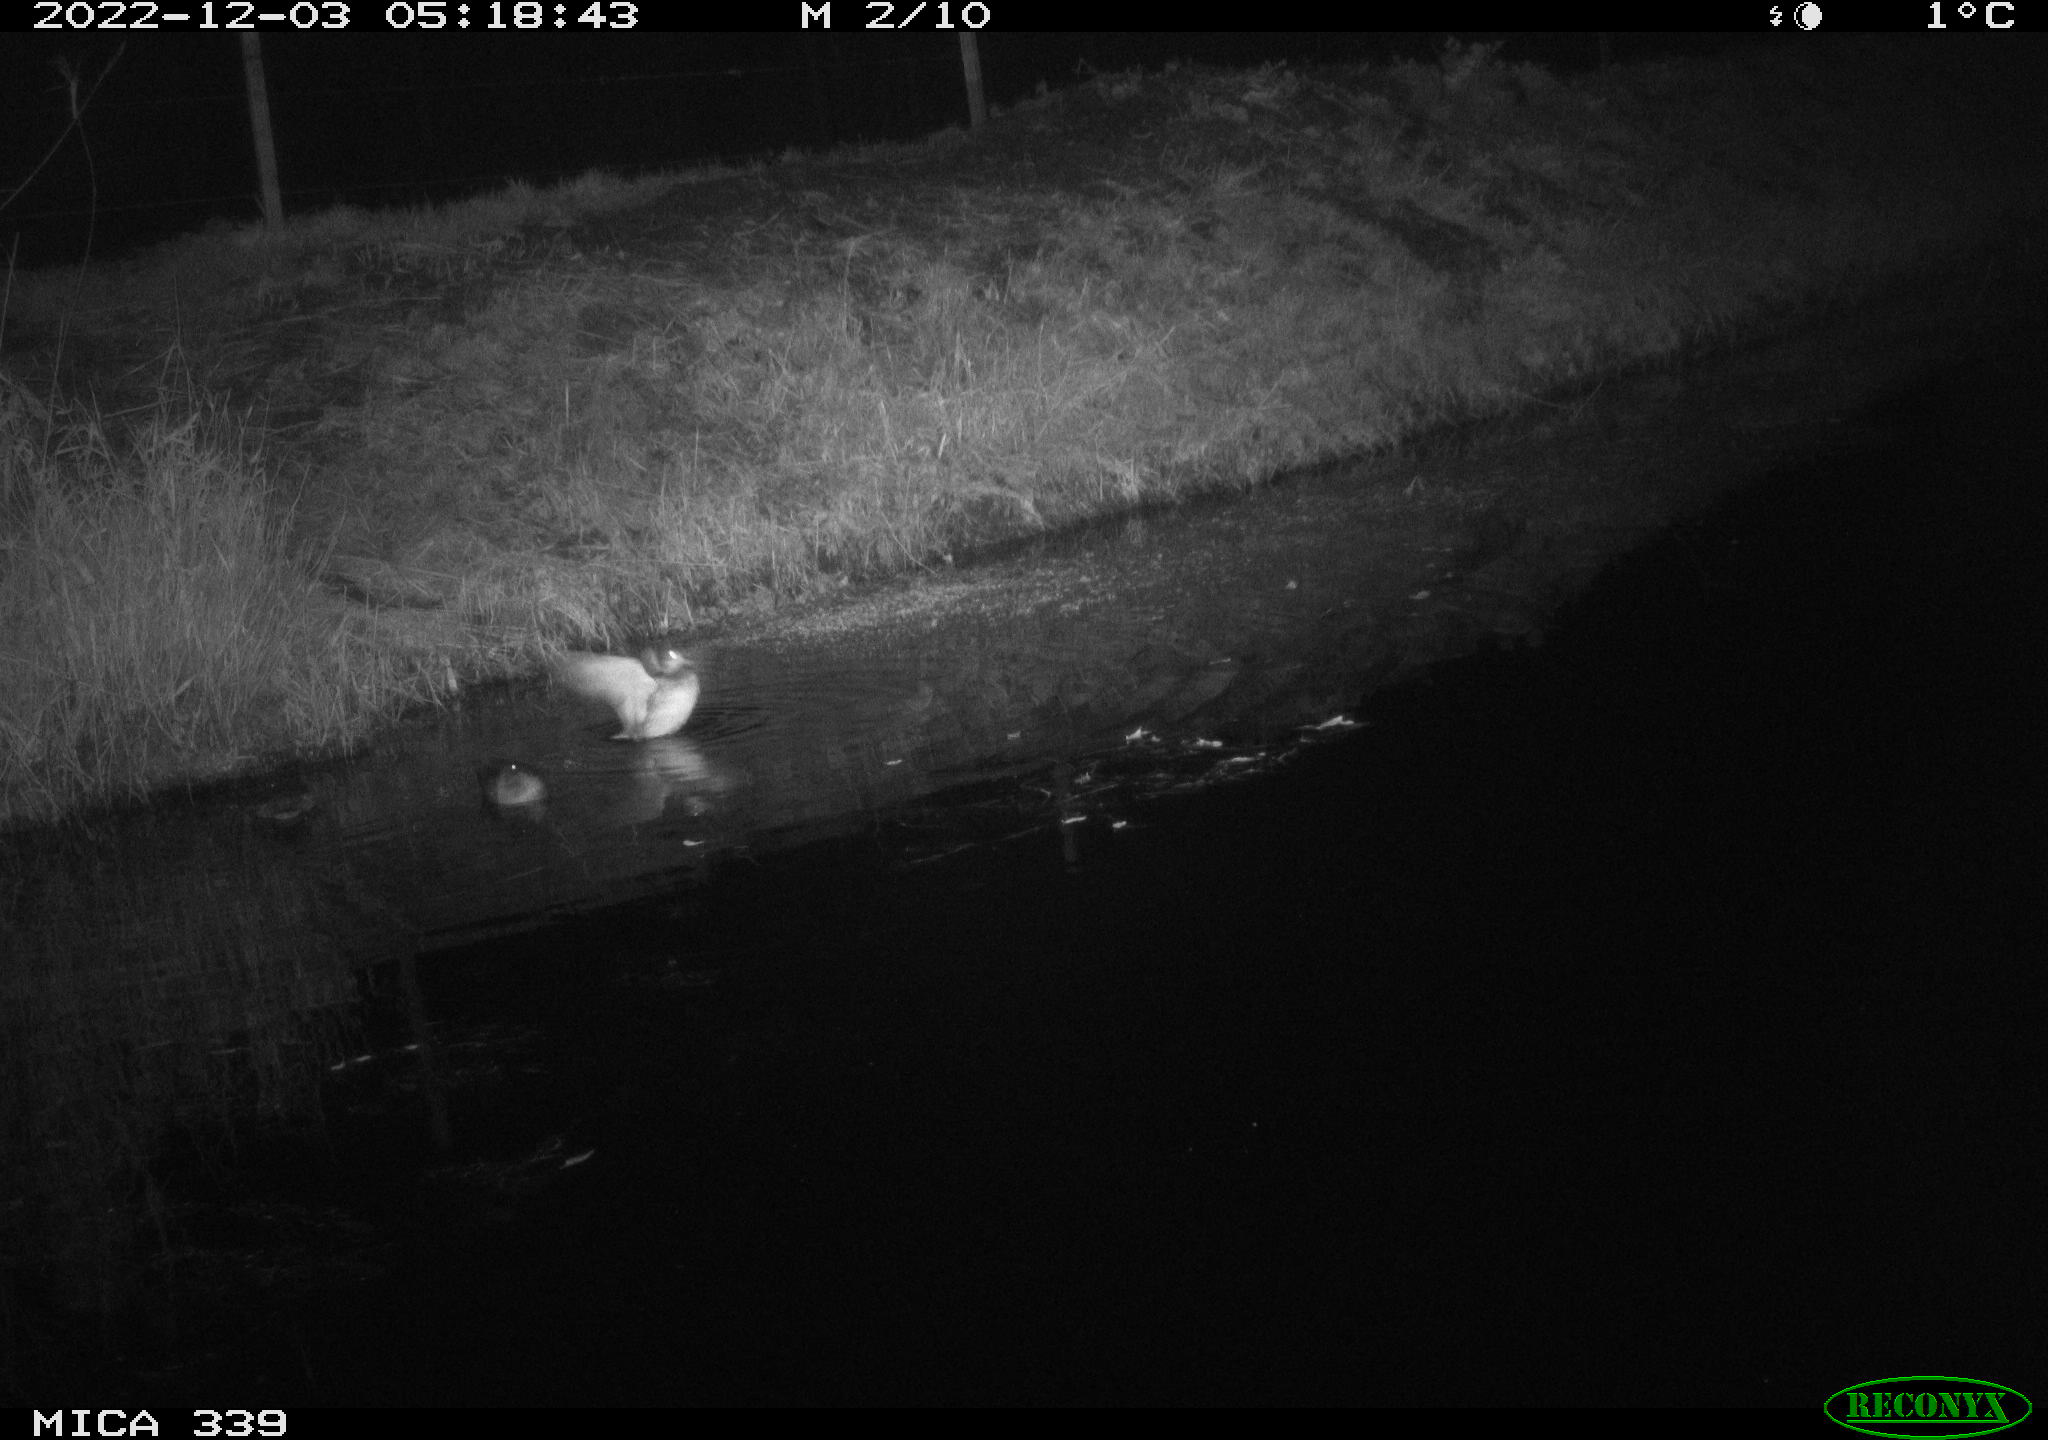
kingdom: Animalia
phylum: Chordata
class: Aves
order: Anseriformes
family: Anatidae
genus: Mareca
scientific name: Mareca strepera
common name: Gadwall
